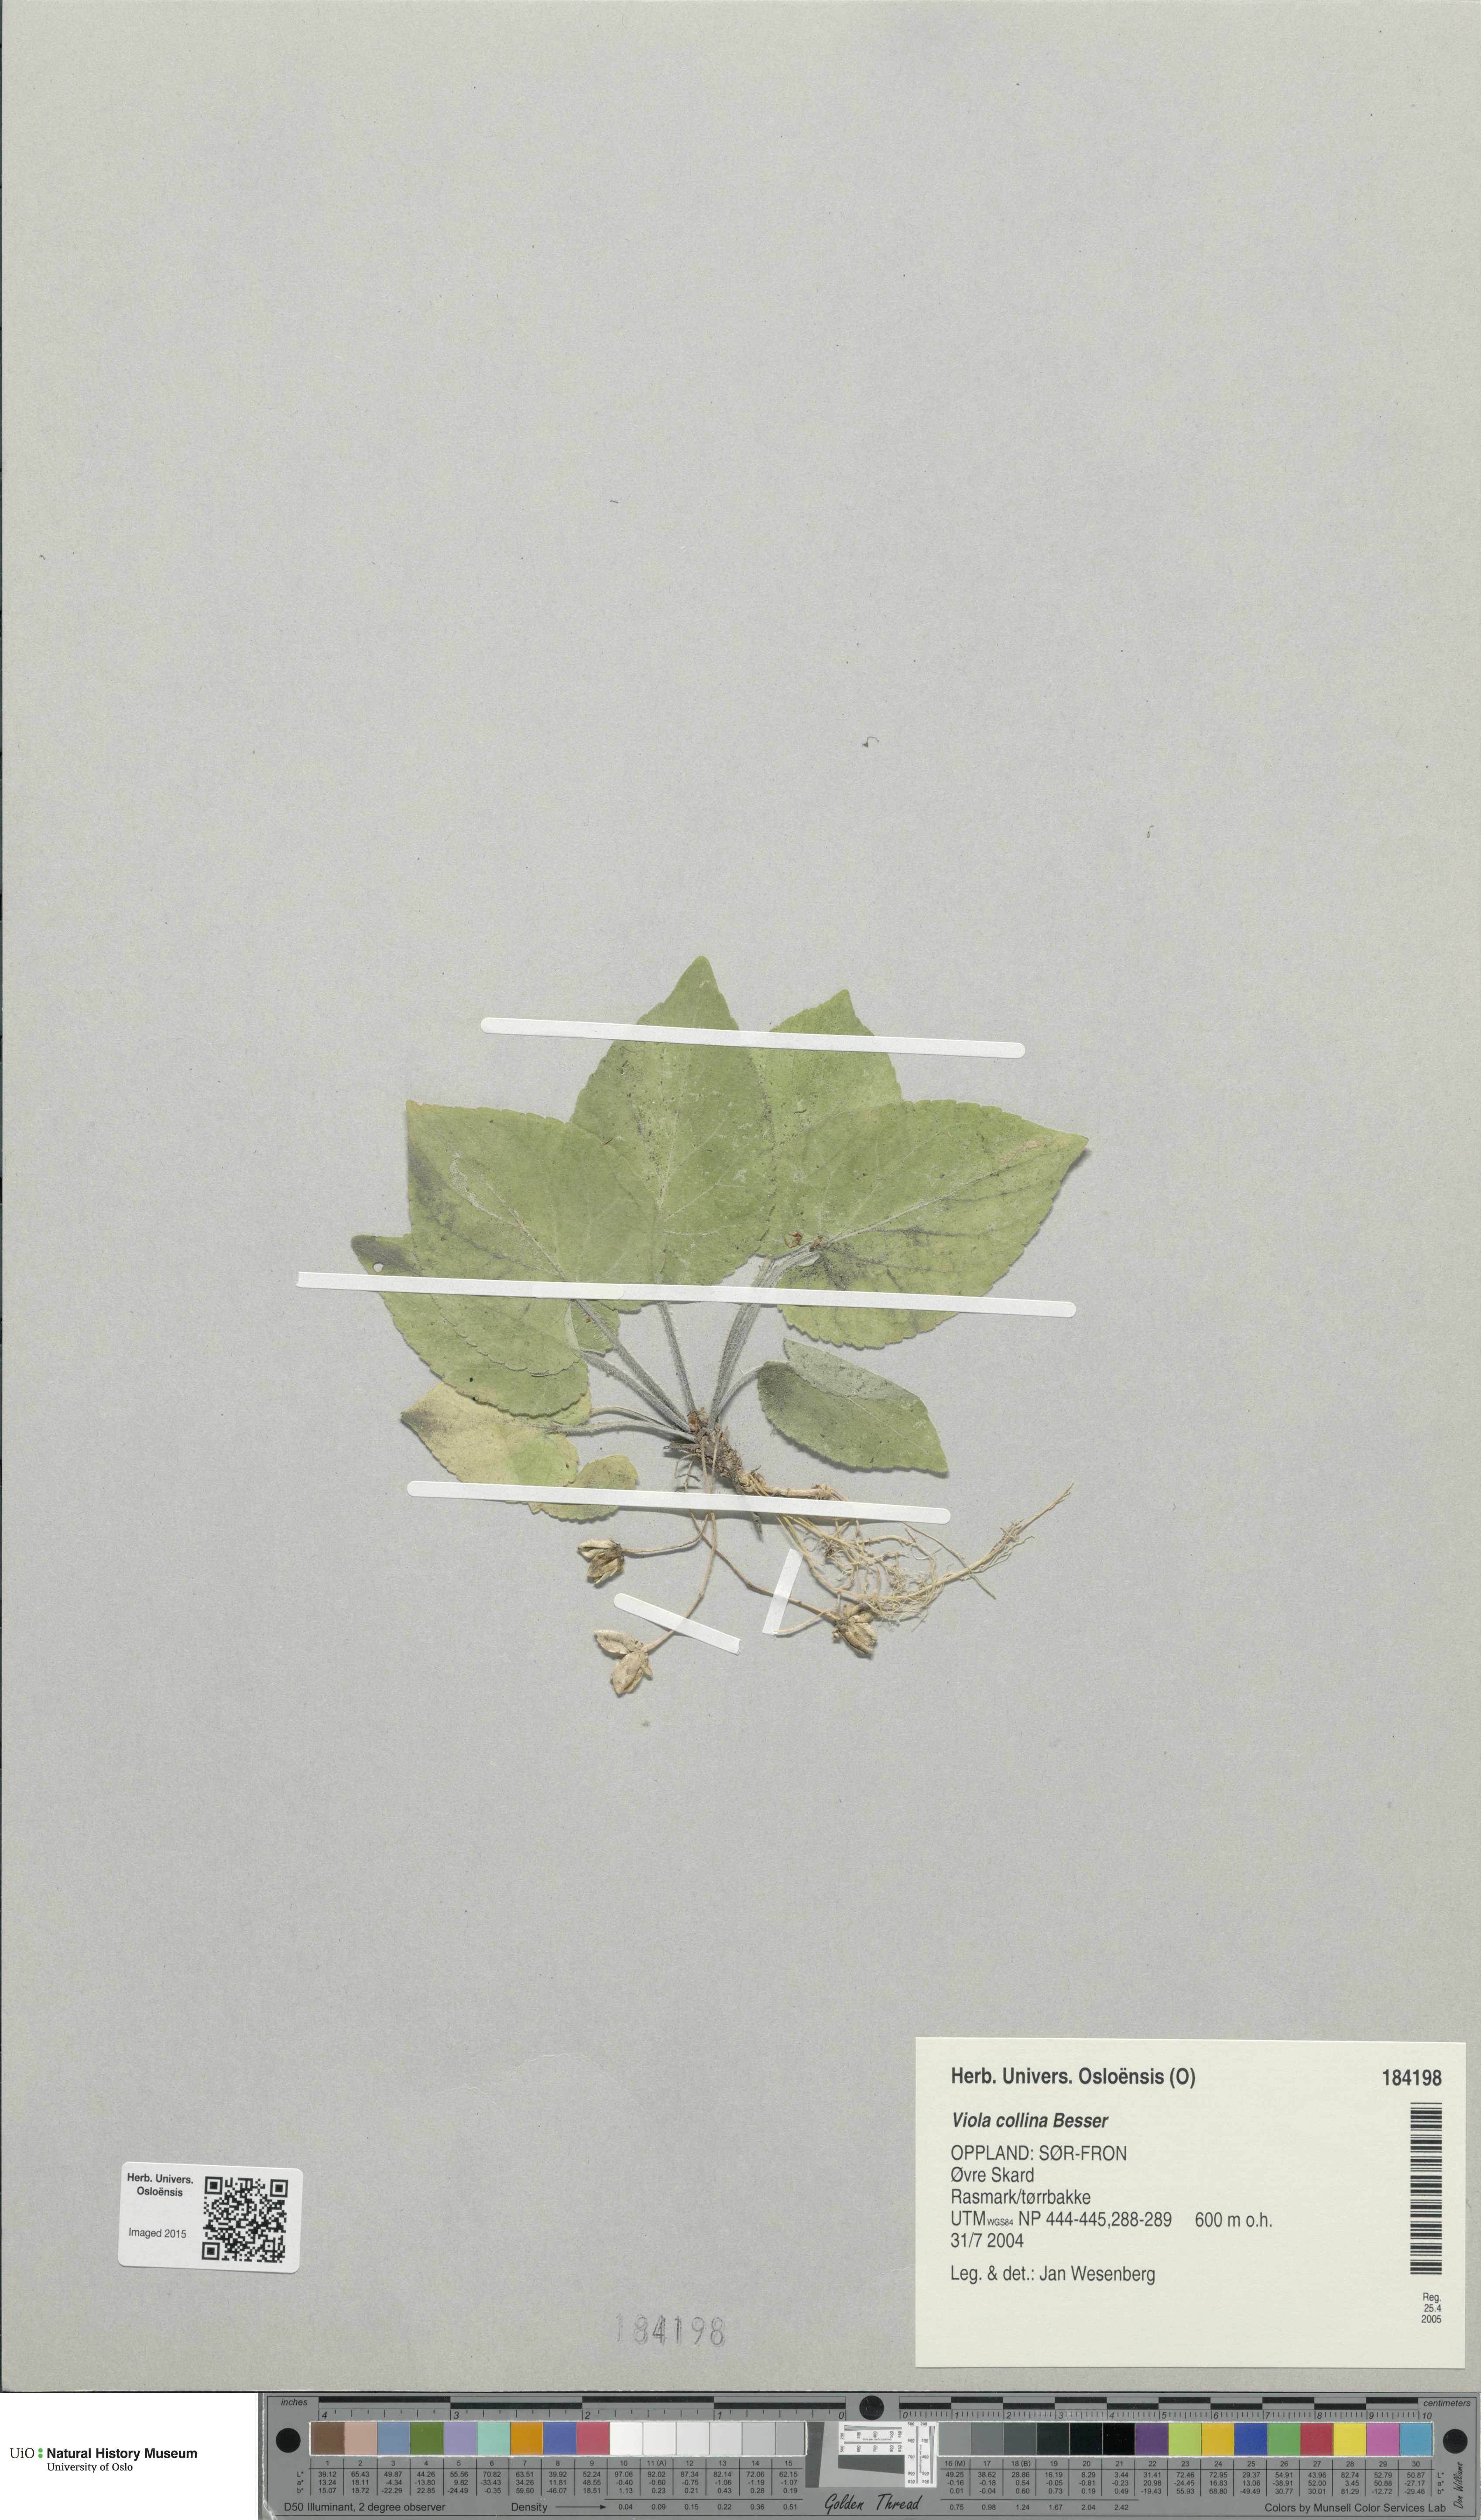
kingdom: Plantae
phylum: Tracheophyta
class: Magnoliopsida
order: Malpighiales
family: Violaceae
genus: Viola
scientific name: Viola collina
